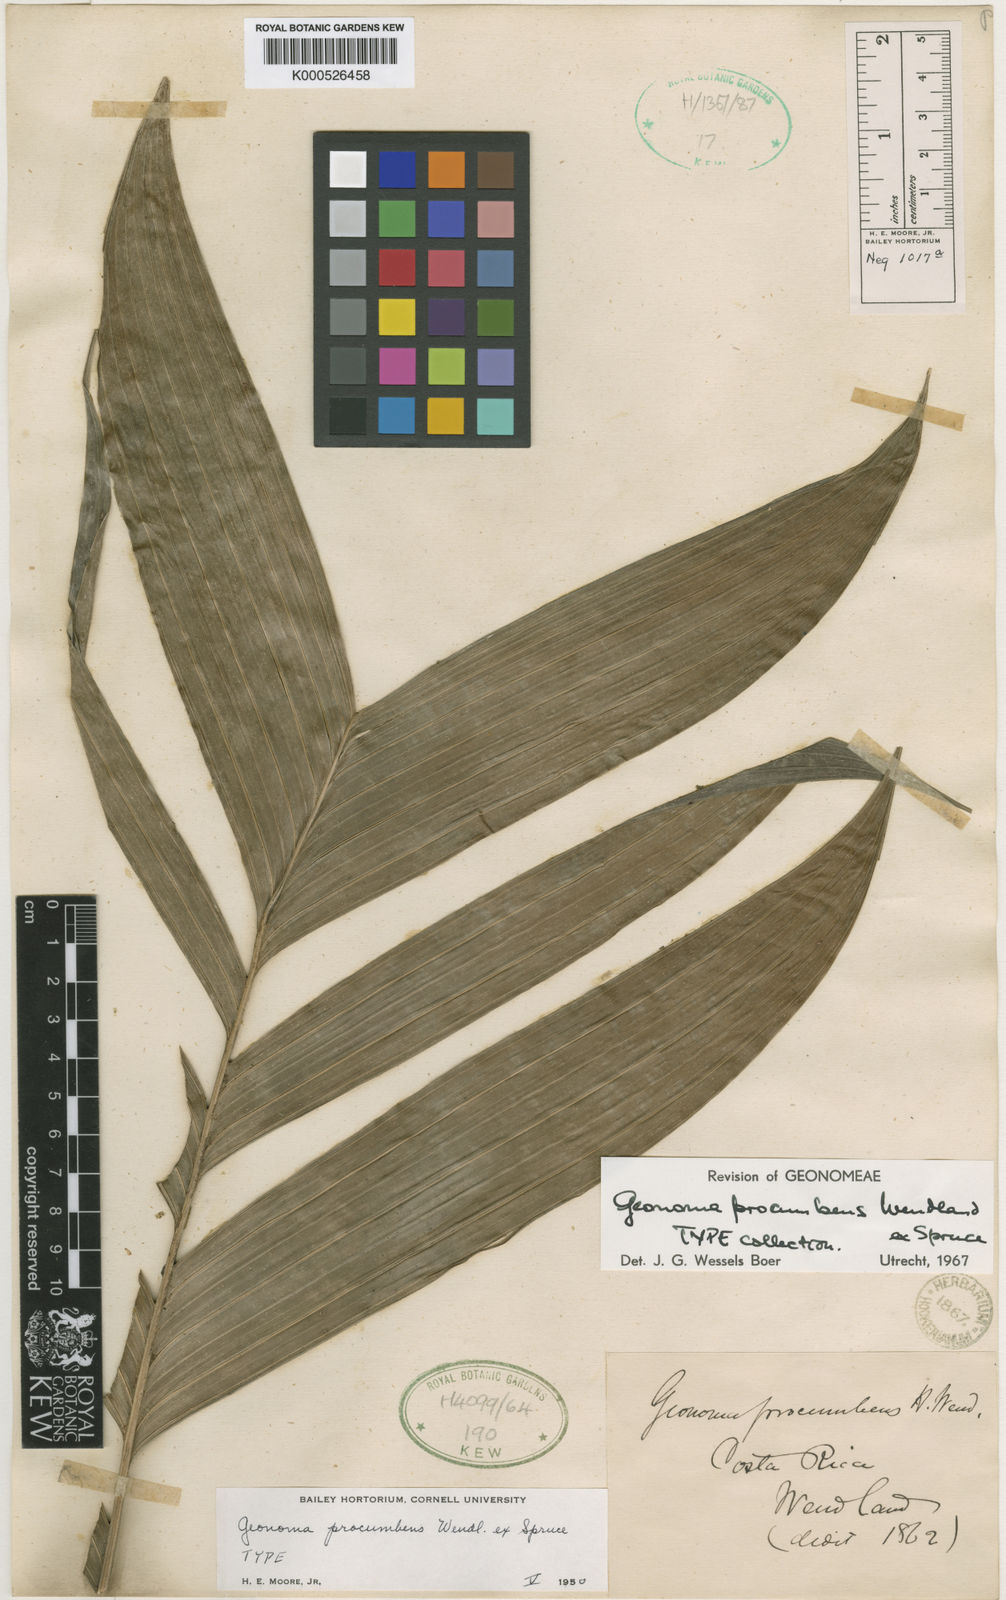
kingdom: Plantae
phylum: Tracheophyta
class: Liliopsida
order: Arecales
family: Arecaceae
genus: Geonoma
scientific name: Geonoma cuneata
